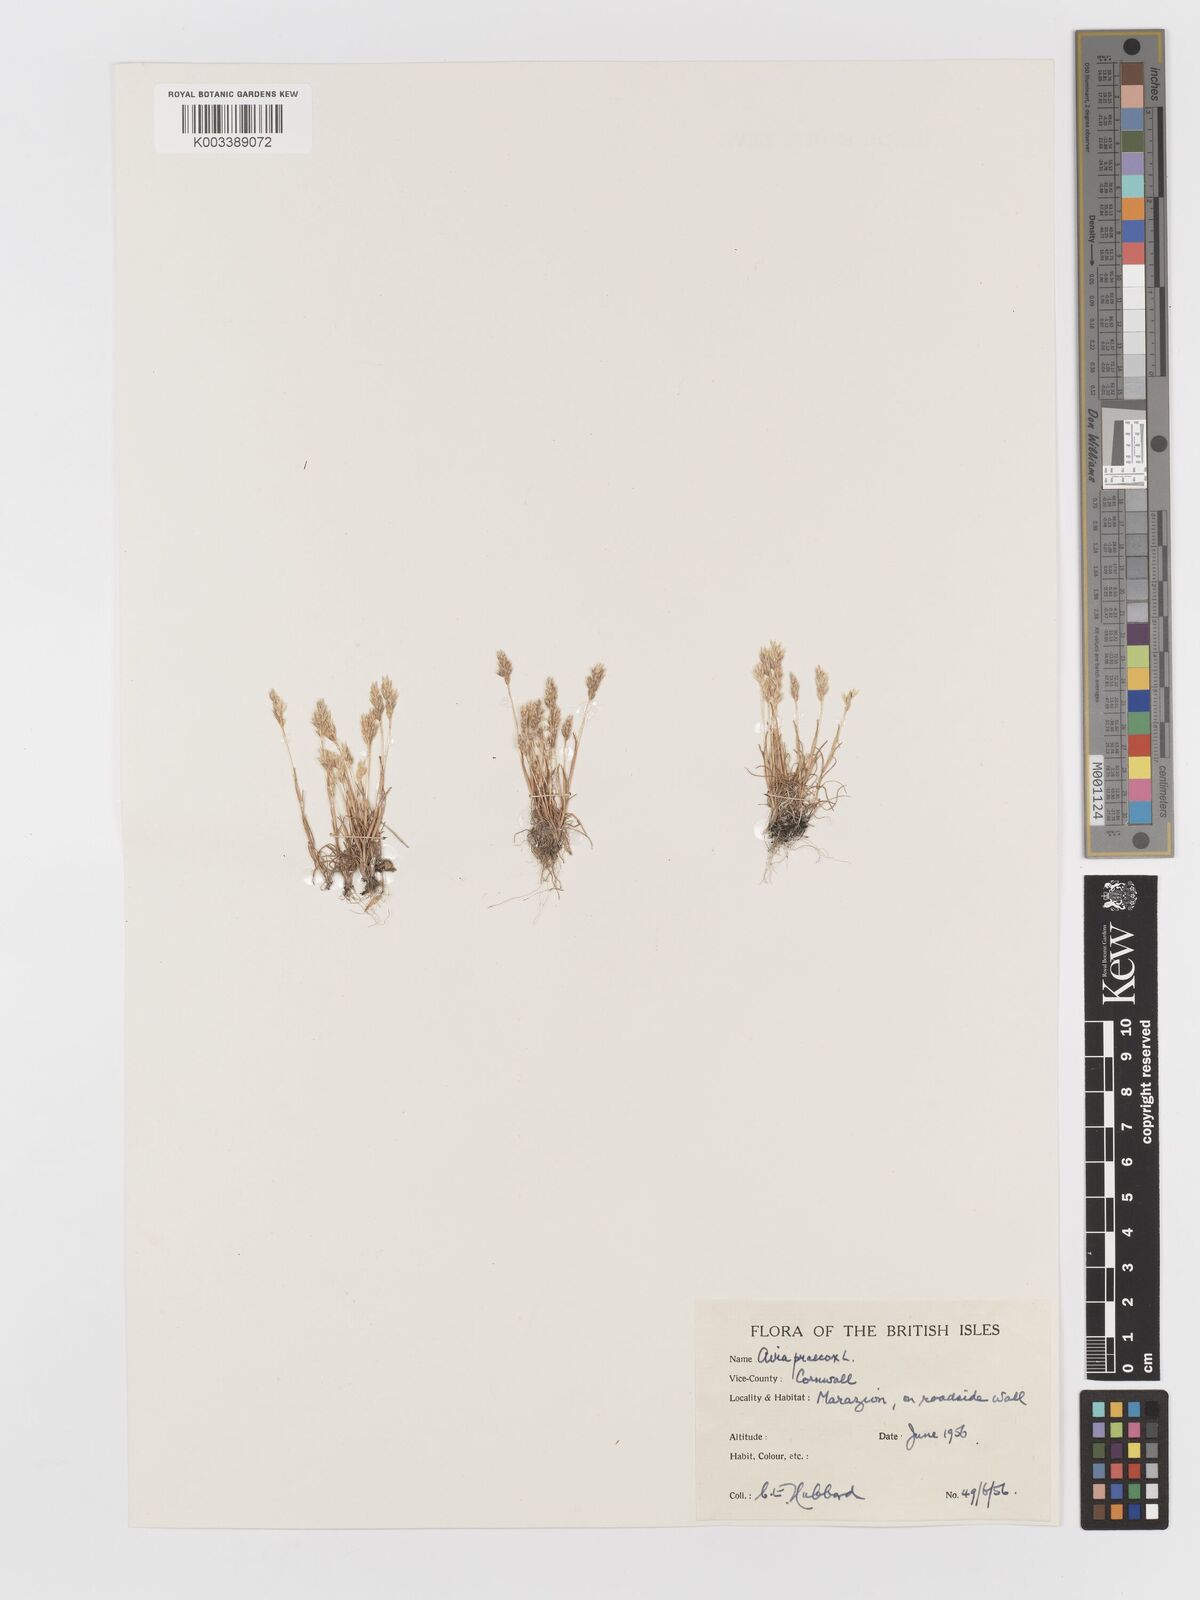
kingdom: Plantae
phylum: Tracheophyta
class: Liliopsida
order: Poales
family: Poaceae
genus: Aira
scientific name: Aira praecox
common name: Early hair-grass
